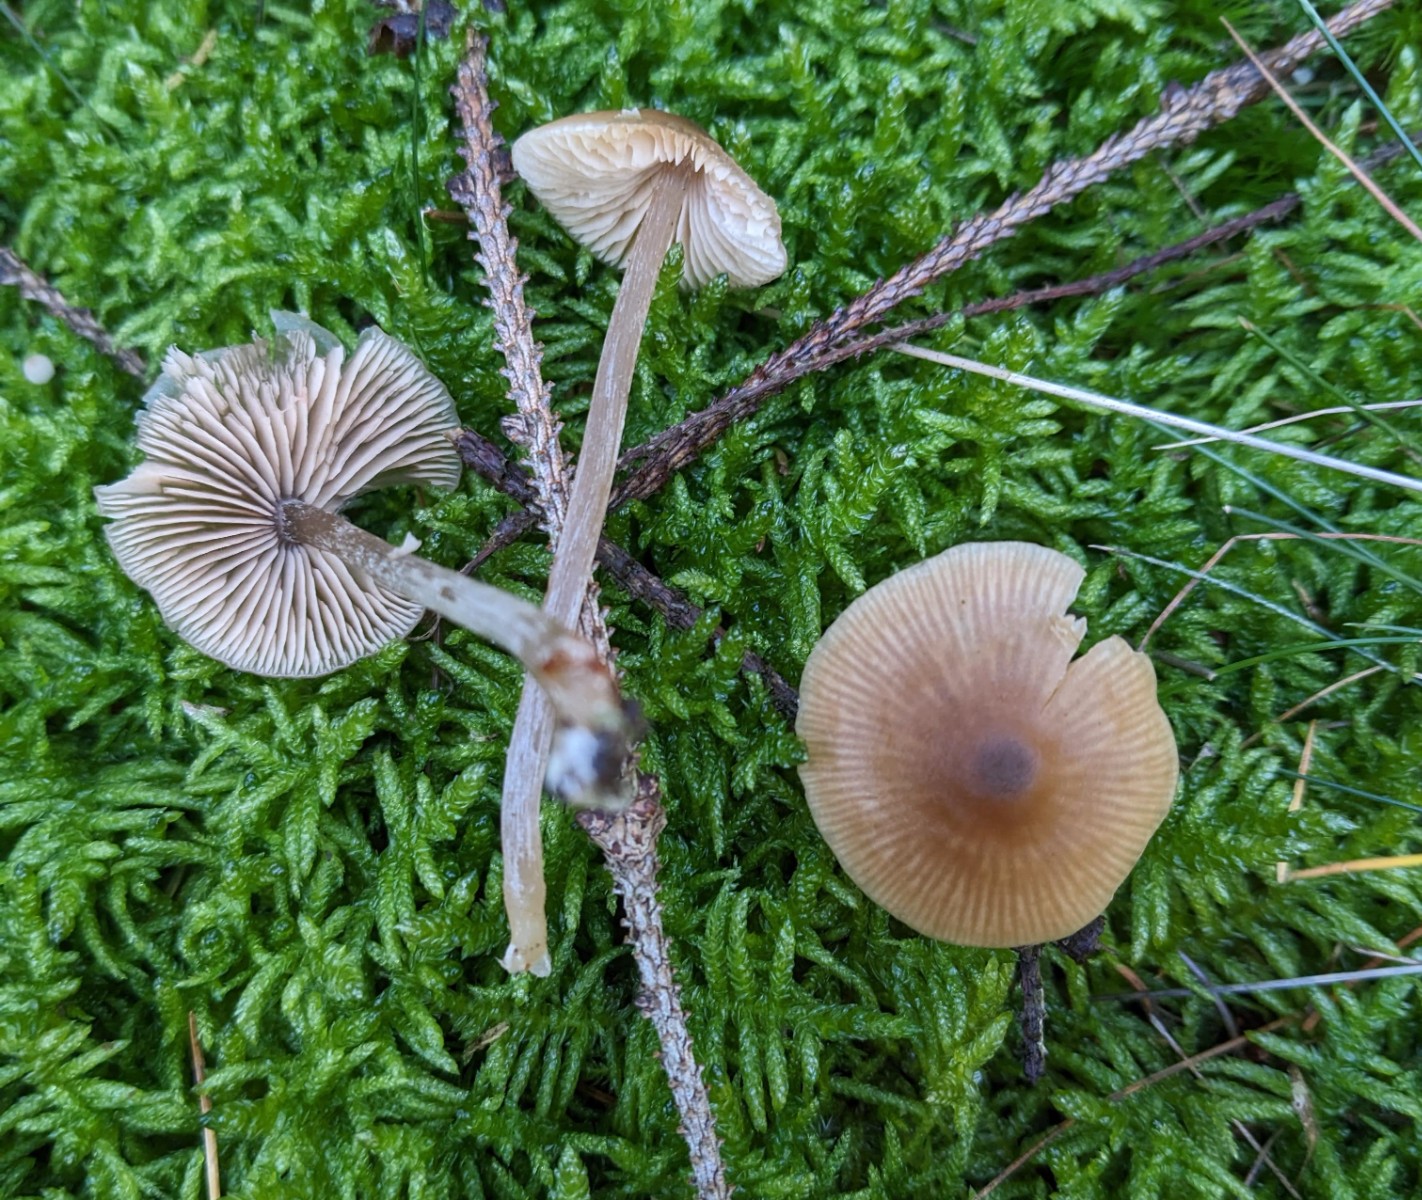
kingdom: Fungi
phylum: Basidiomycota
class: Agaricomycetes
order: Agaricales
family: Entolomataceae
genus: Entoloma
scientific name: Entoloma cetratum
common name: voks-rødblad
